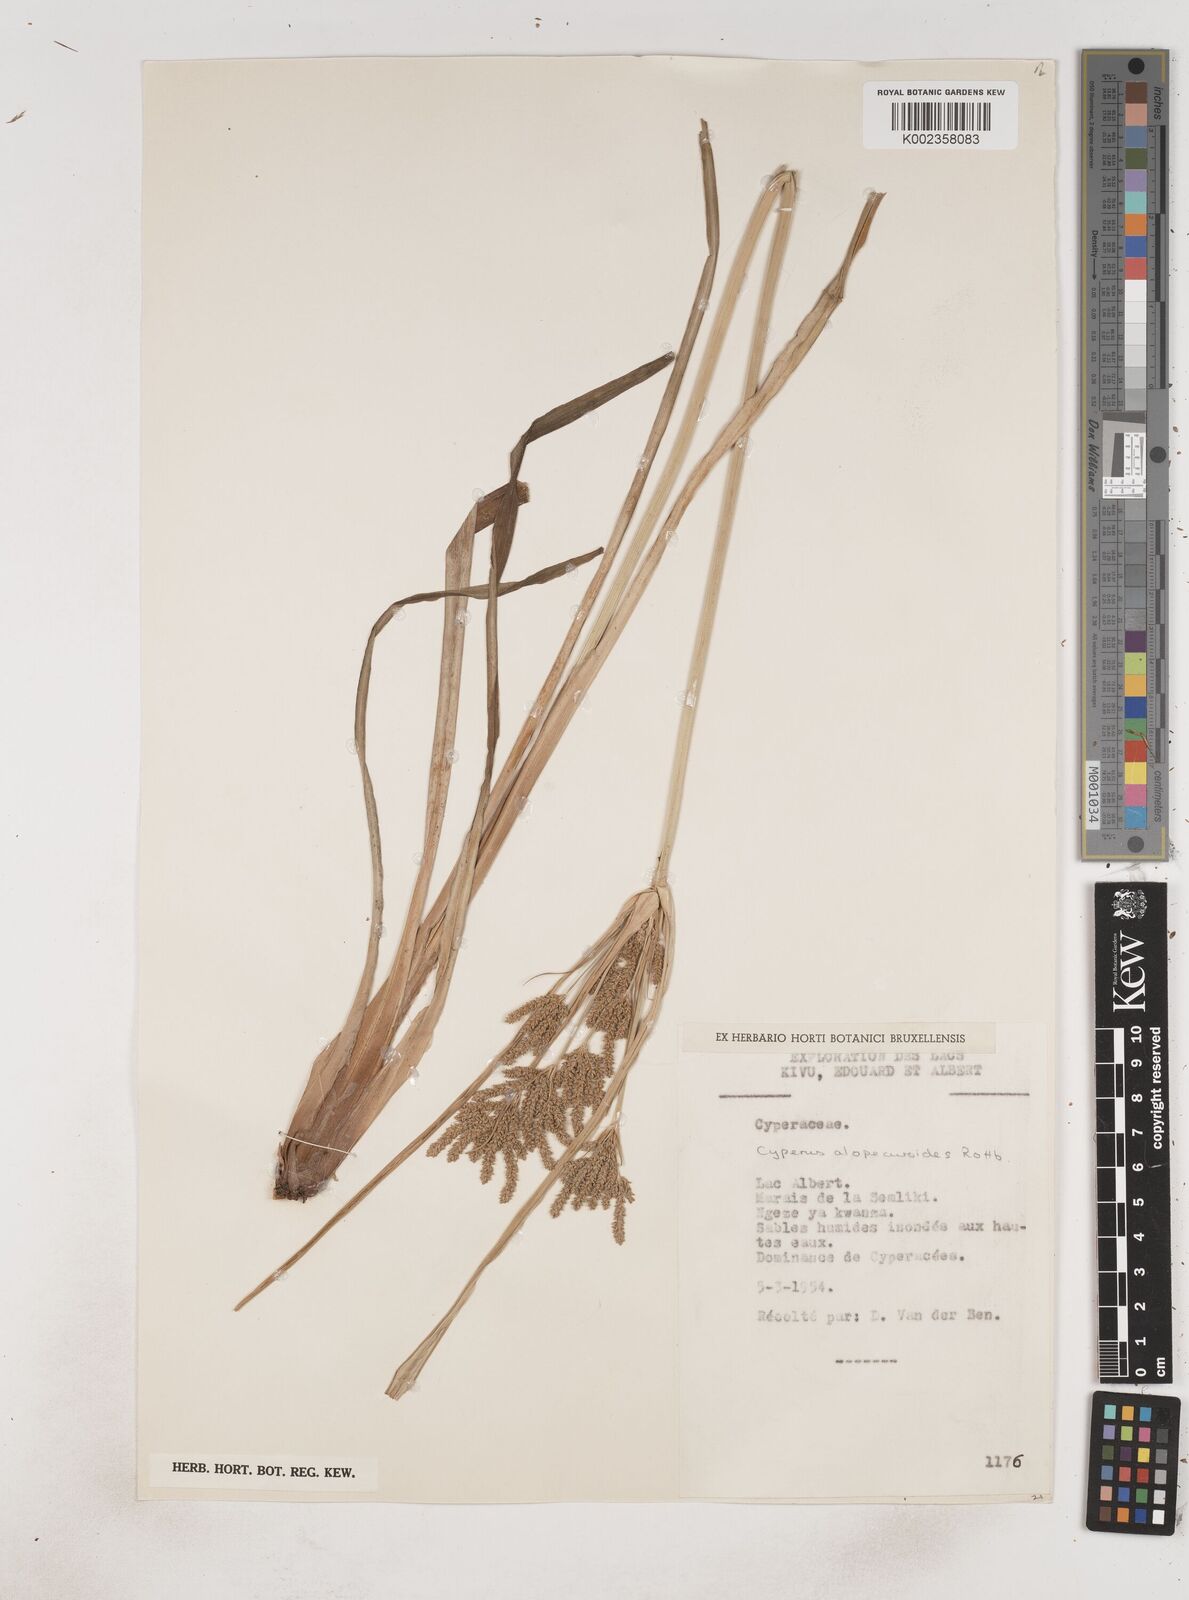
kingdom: Plantae
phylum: Tracheophyta
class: Liliopsida
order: Poales
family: Cyperaceae
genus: Cyperus
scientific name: Cyperus alopecuroides
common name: Foxtail flatsedge
